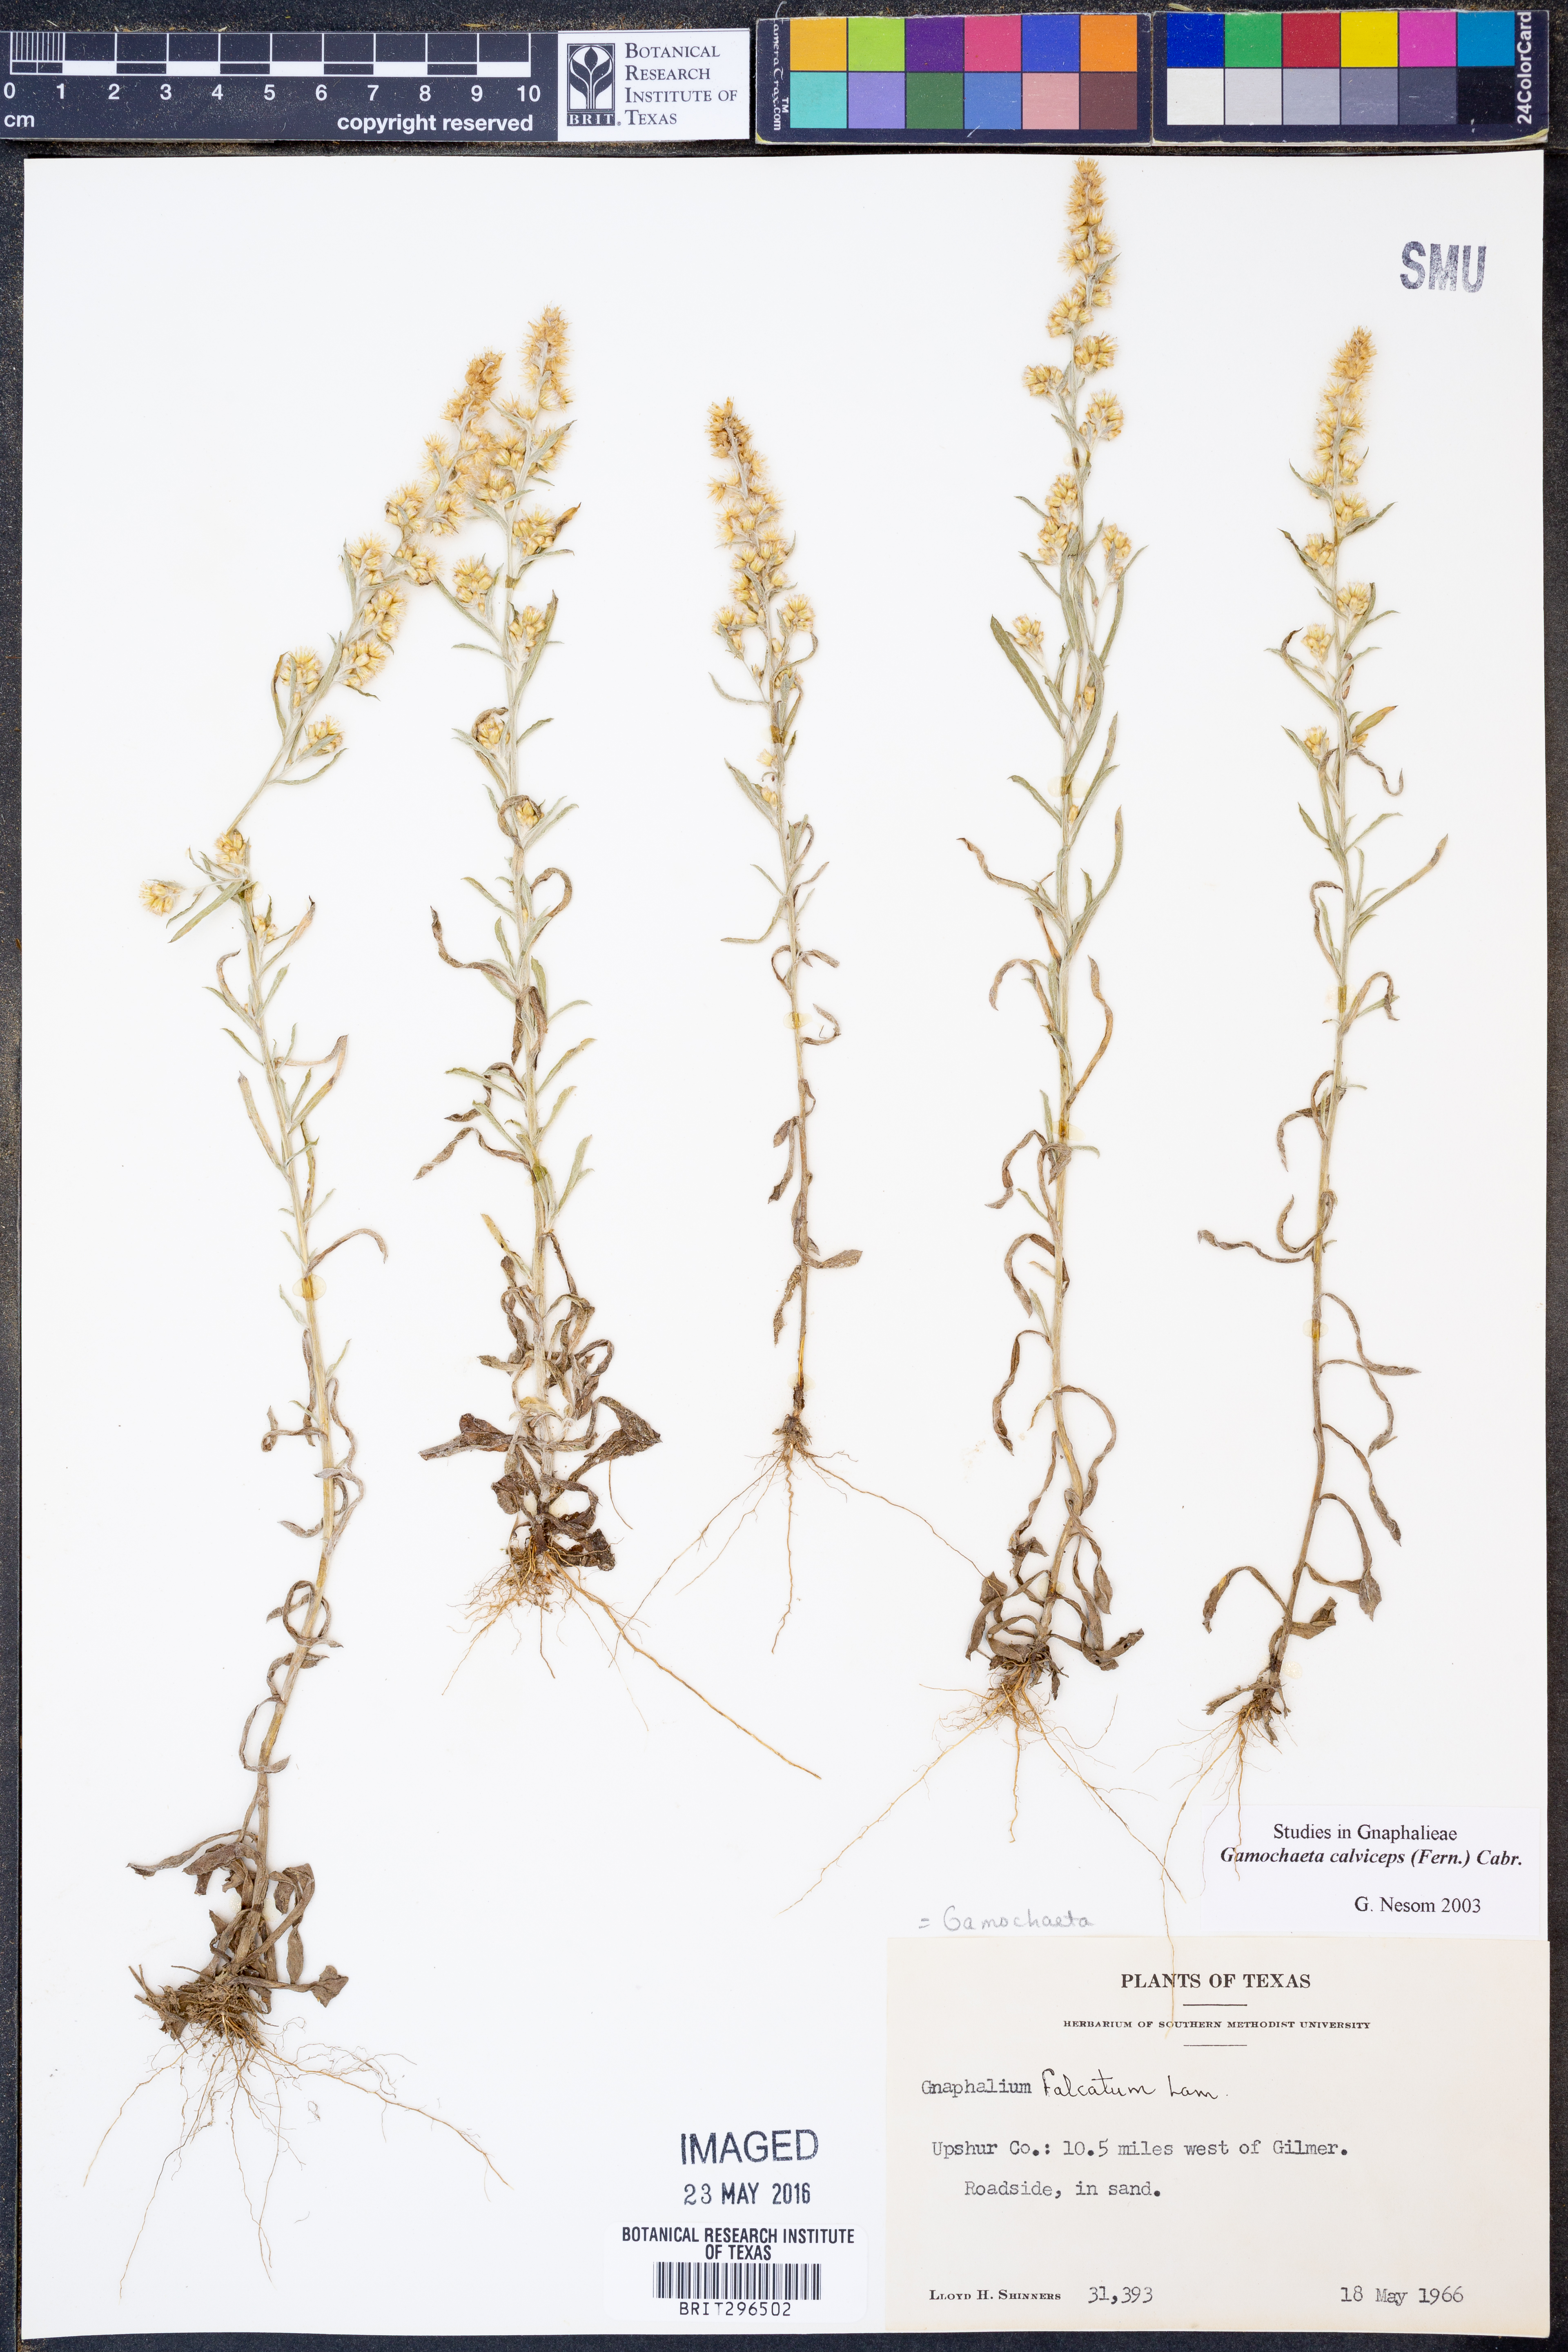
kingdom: Plantae
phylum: Tracheophyta
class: Magnoliopsida
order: Asterales
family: Asteraceae
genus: Gamochaeta
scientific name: Gamochaeta calviceps
